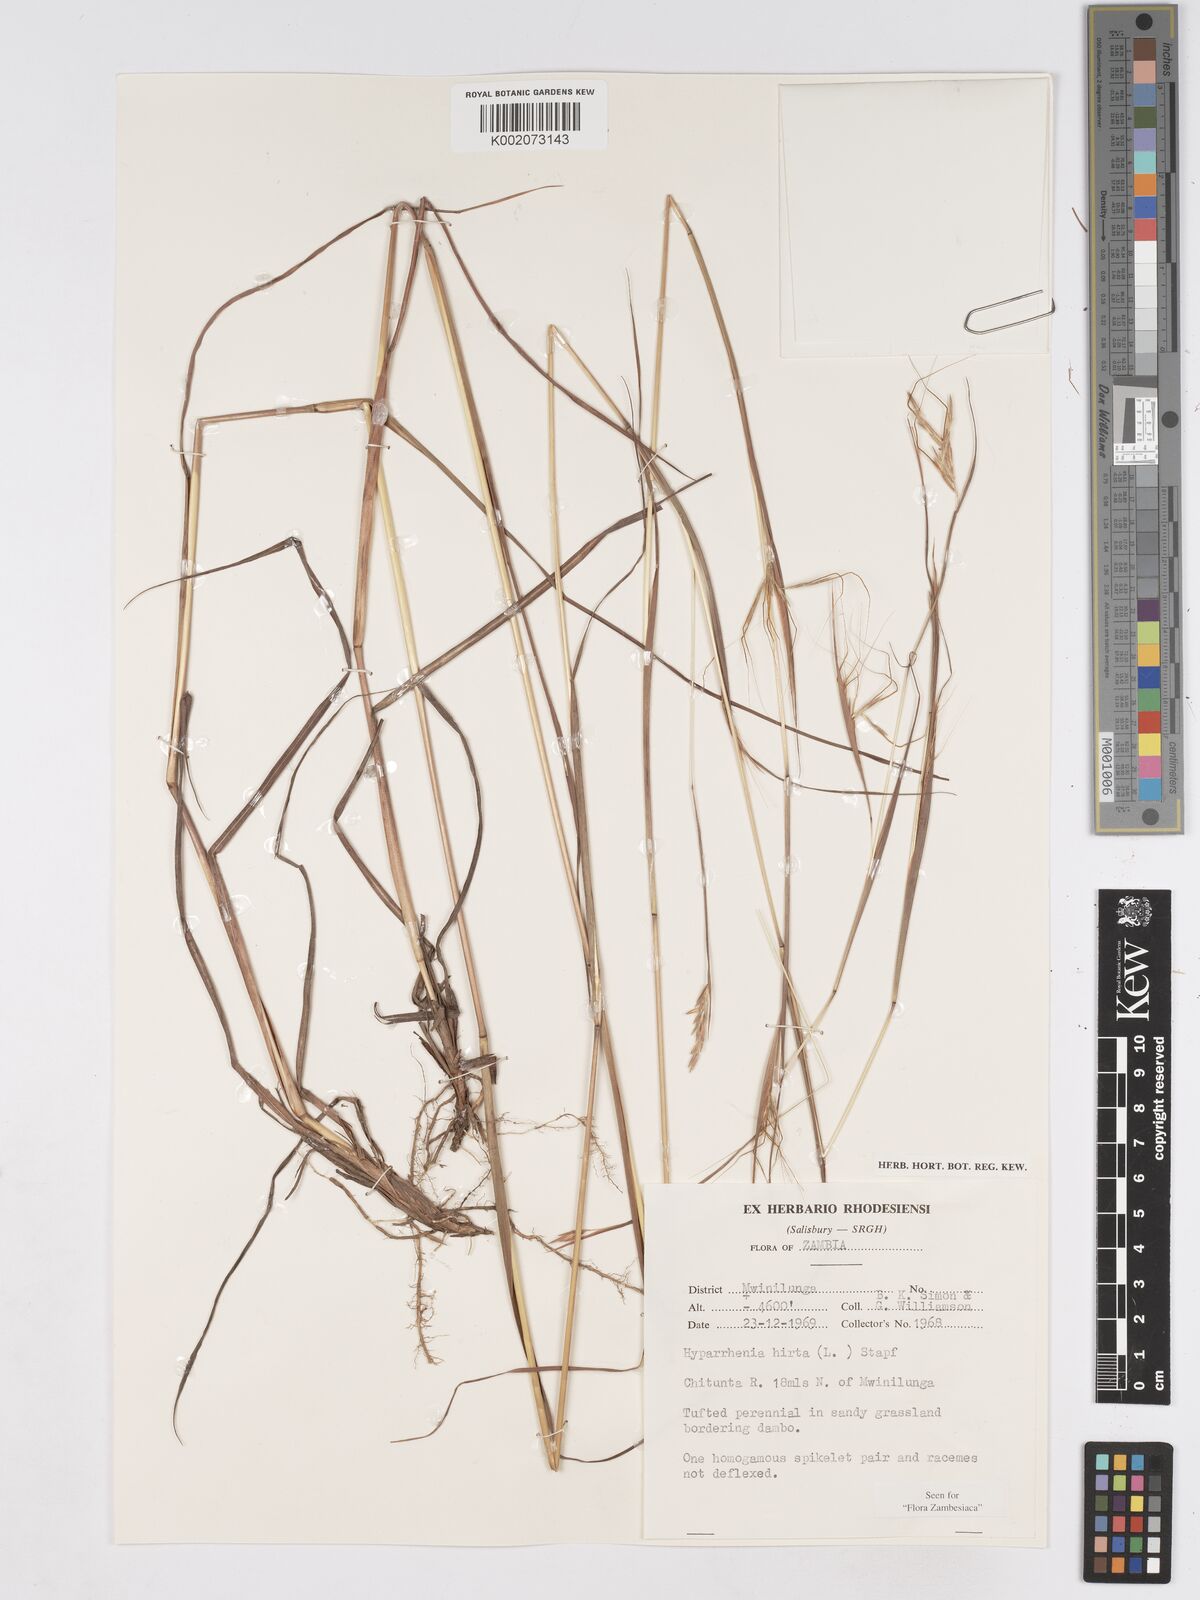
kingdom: Plantae
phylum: Tracheophyta
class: Liliopsida
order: Poales
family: Poaceae
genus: Hyparrhenia
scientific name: Hyparrhenia hirta
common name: Thatching grass
